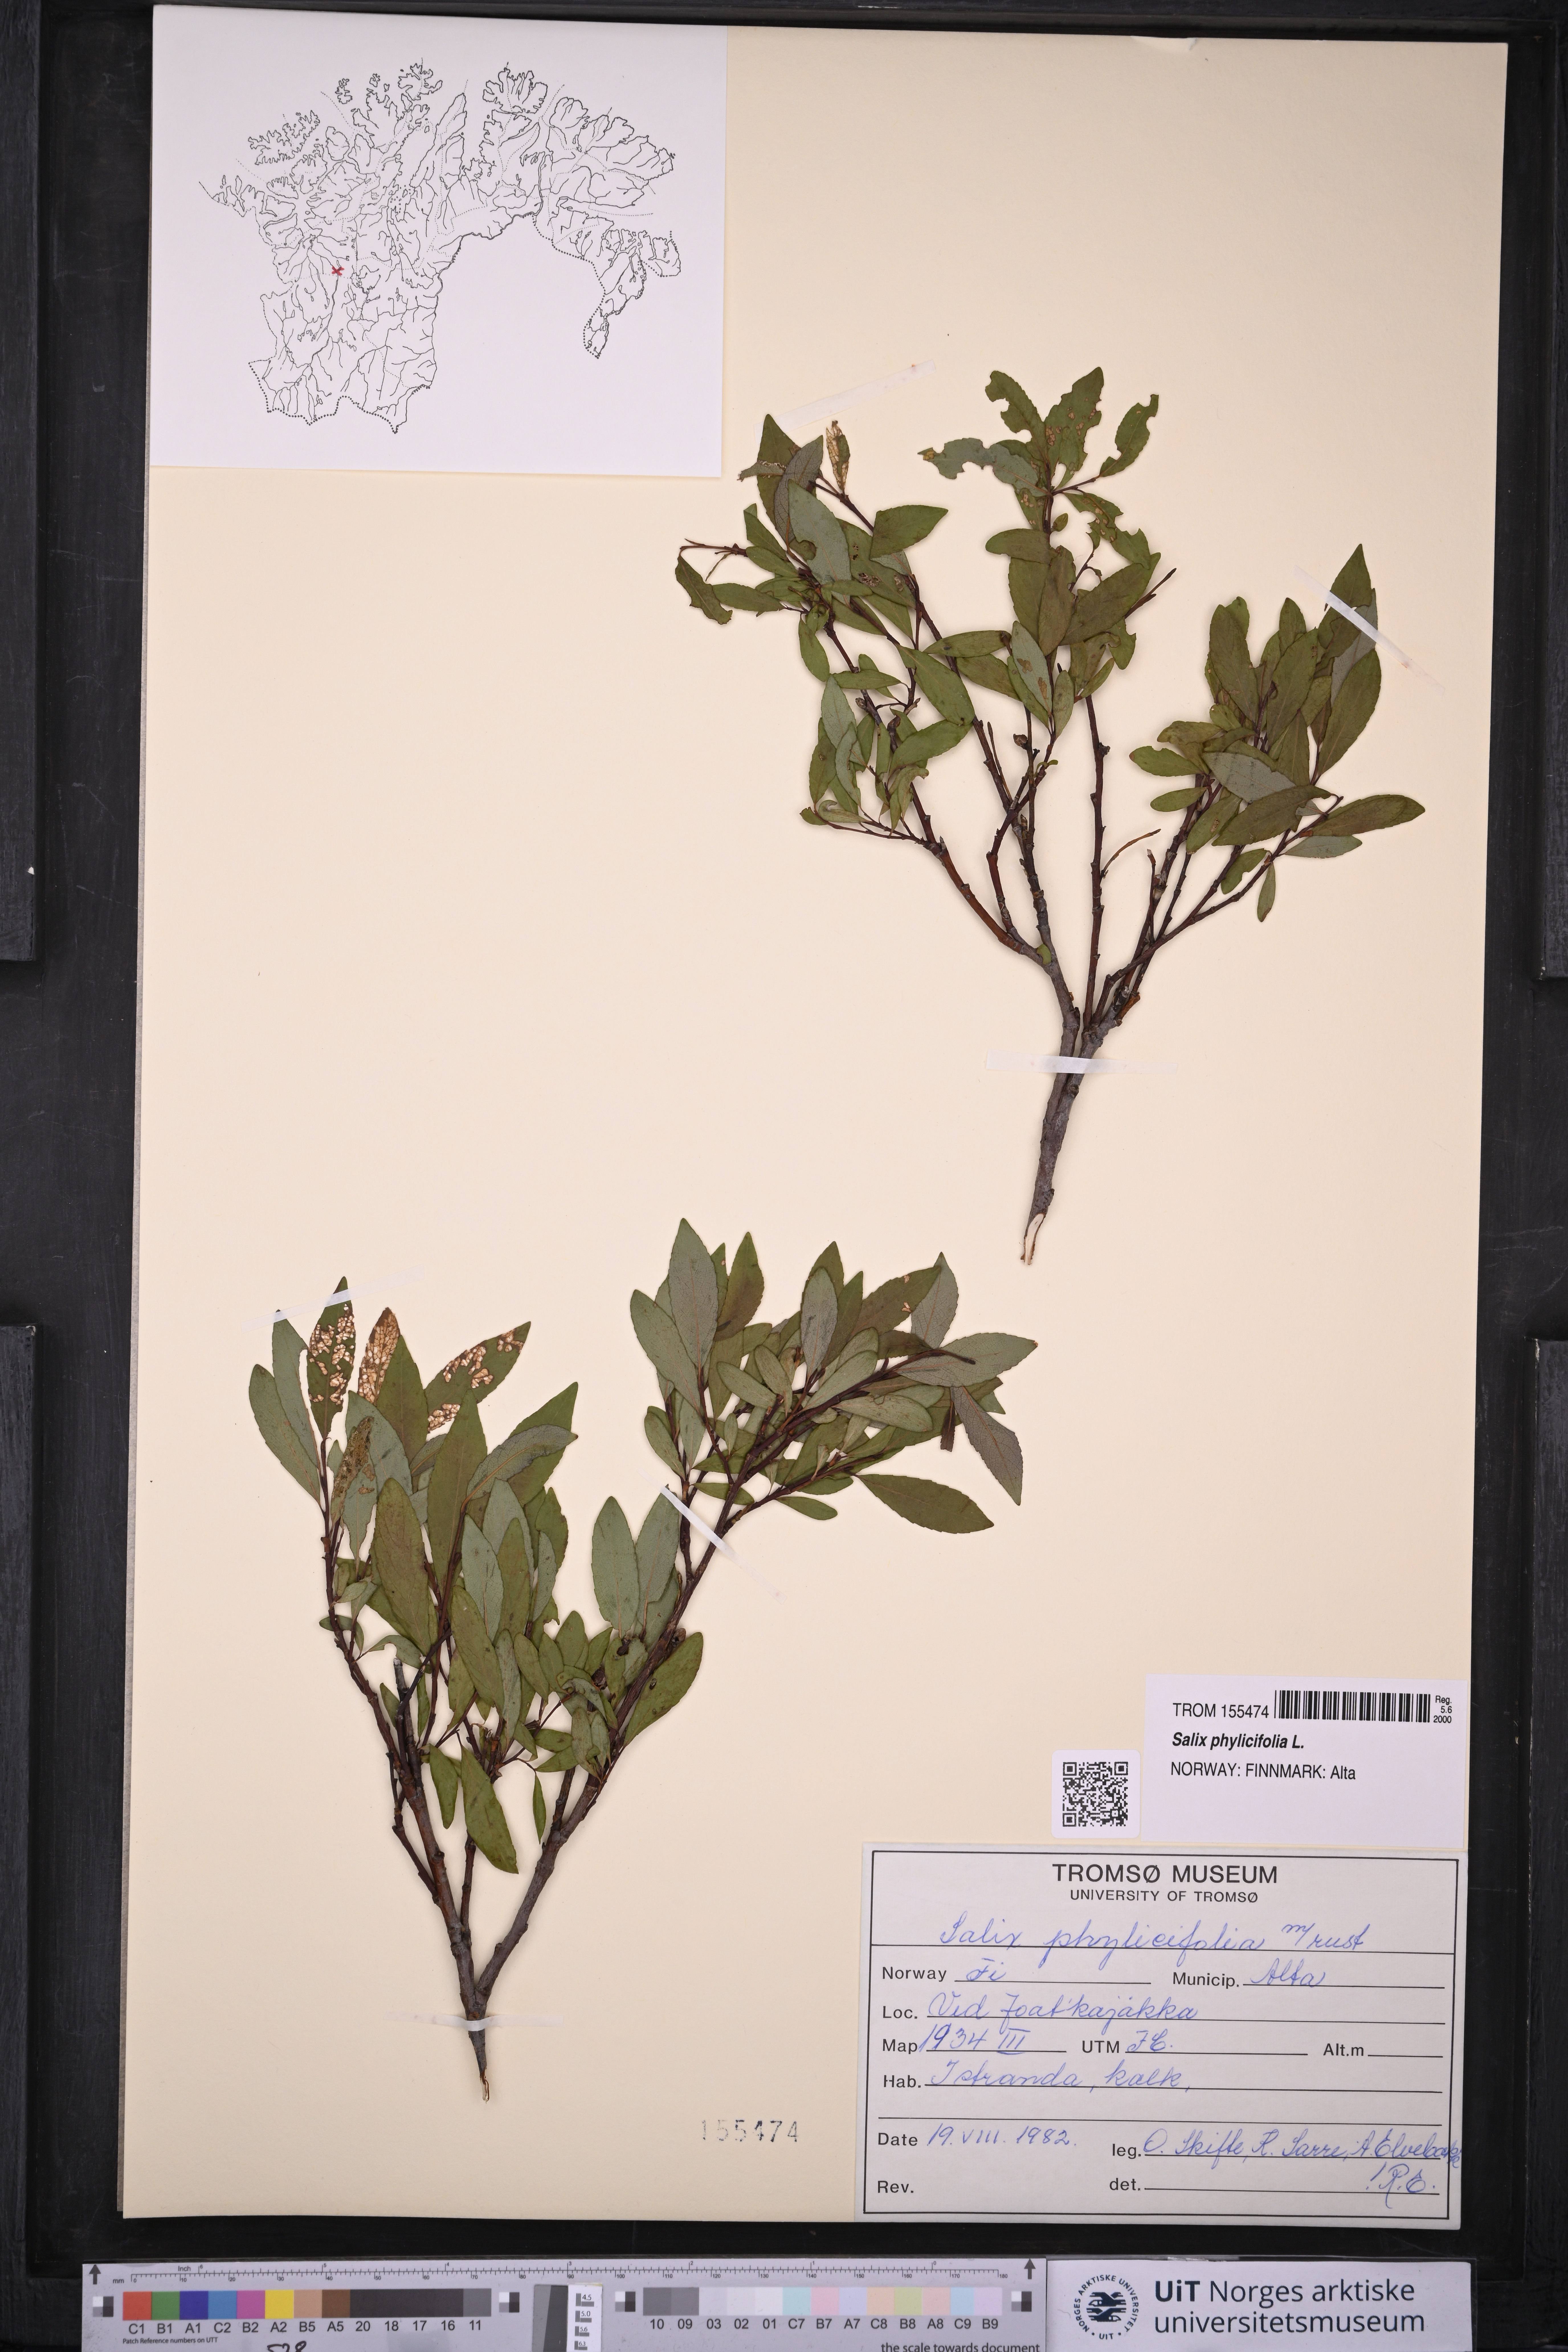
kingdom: Plantae
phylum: Tracheophyta
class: Magnoliopsida
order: Malpighiales
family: Salicaceae
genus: Salix
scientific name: Salix phylicifolia
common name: Tea-leaved willow
